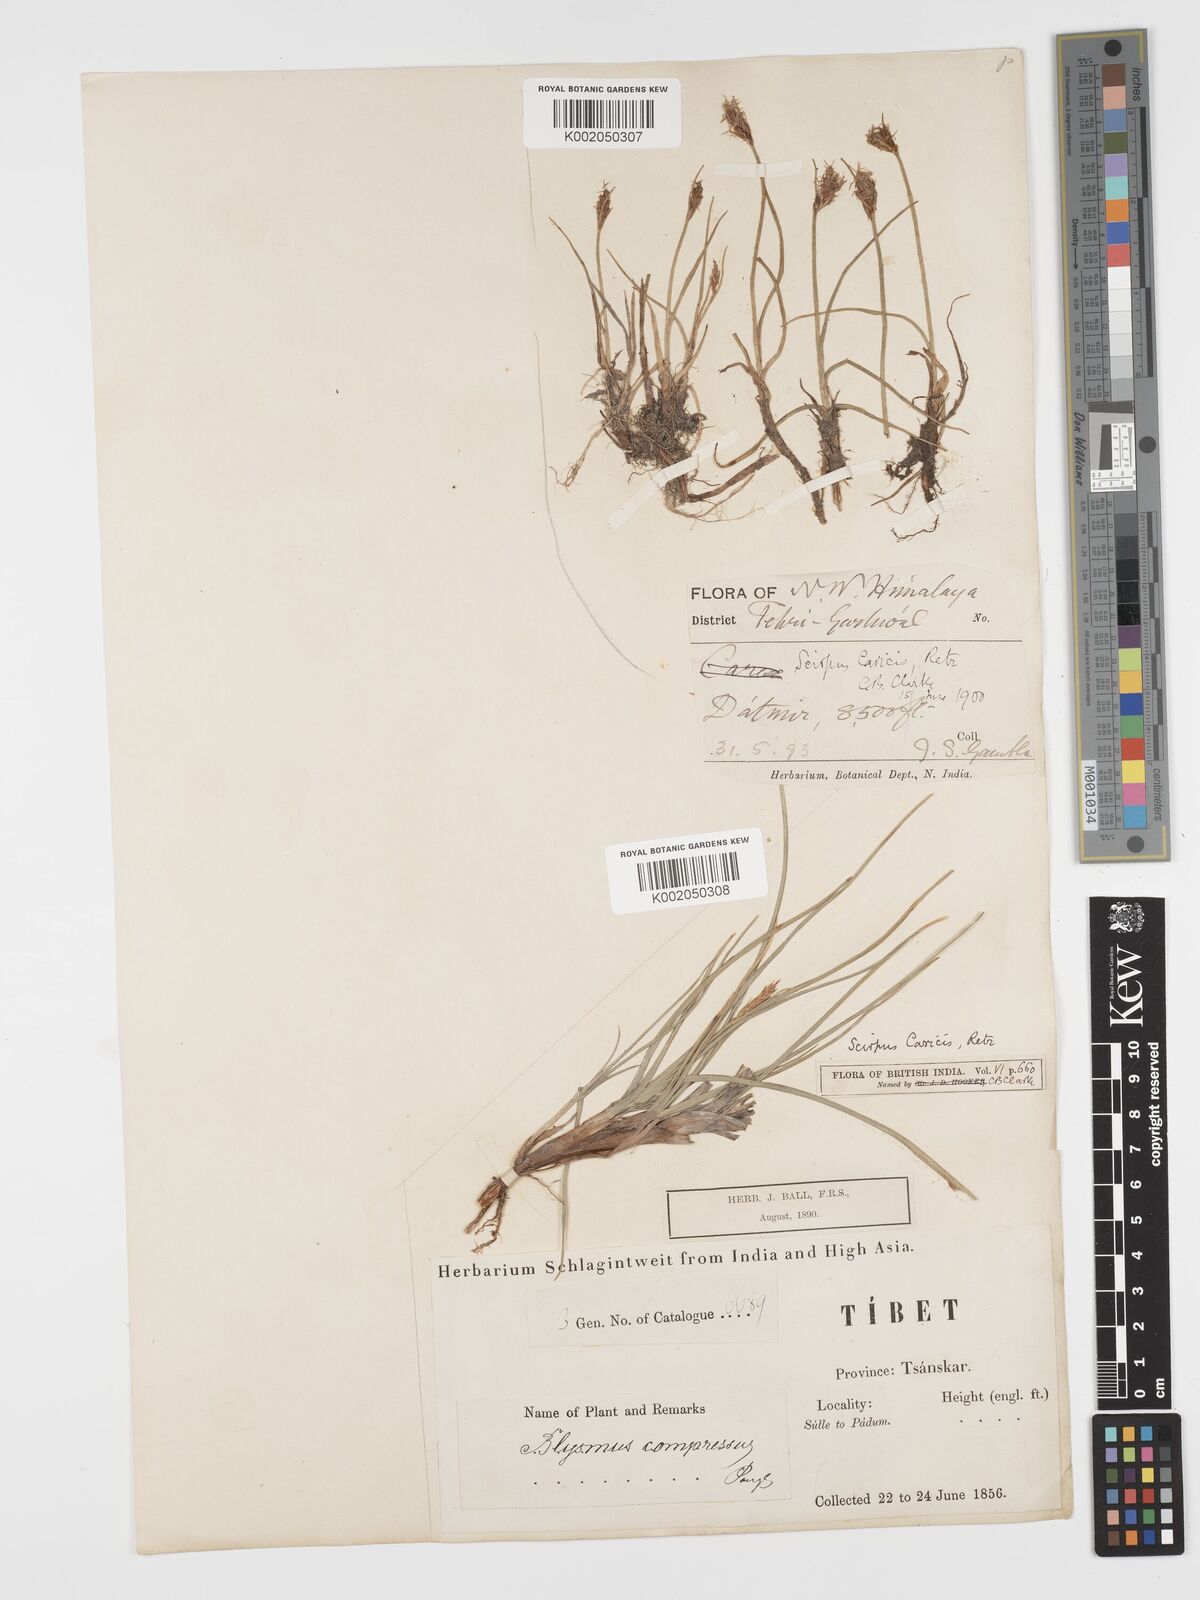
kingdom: Plantae
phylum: Tracheophyta
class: Liliopsida
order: Poales
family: Cyperaceae
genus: Blysmus
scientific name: Blysmus compressus
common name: Flat-sedge
